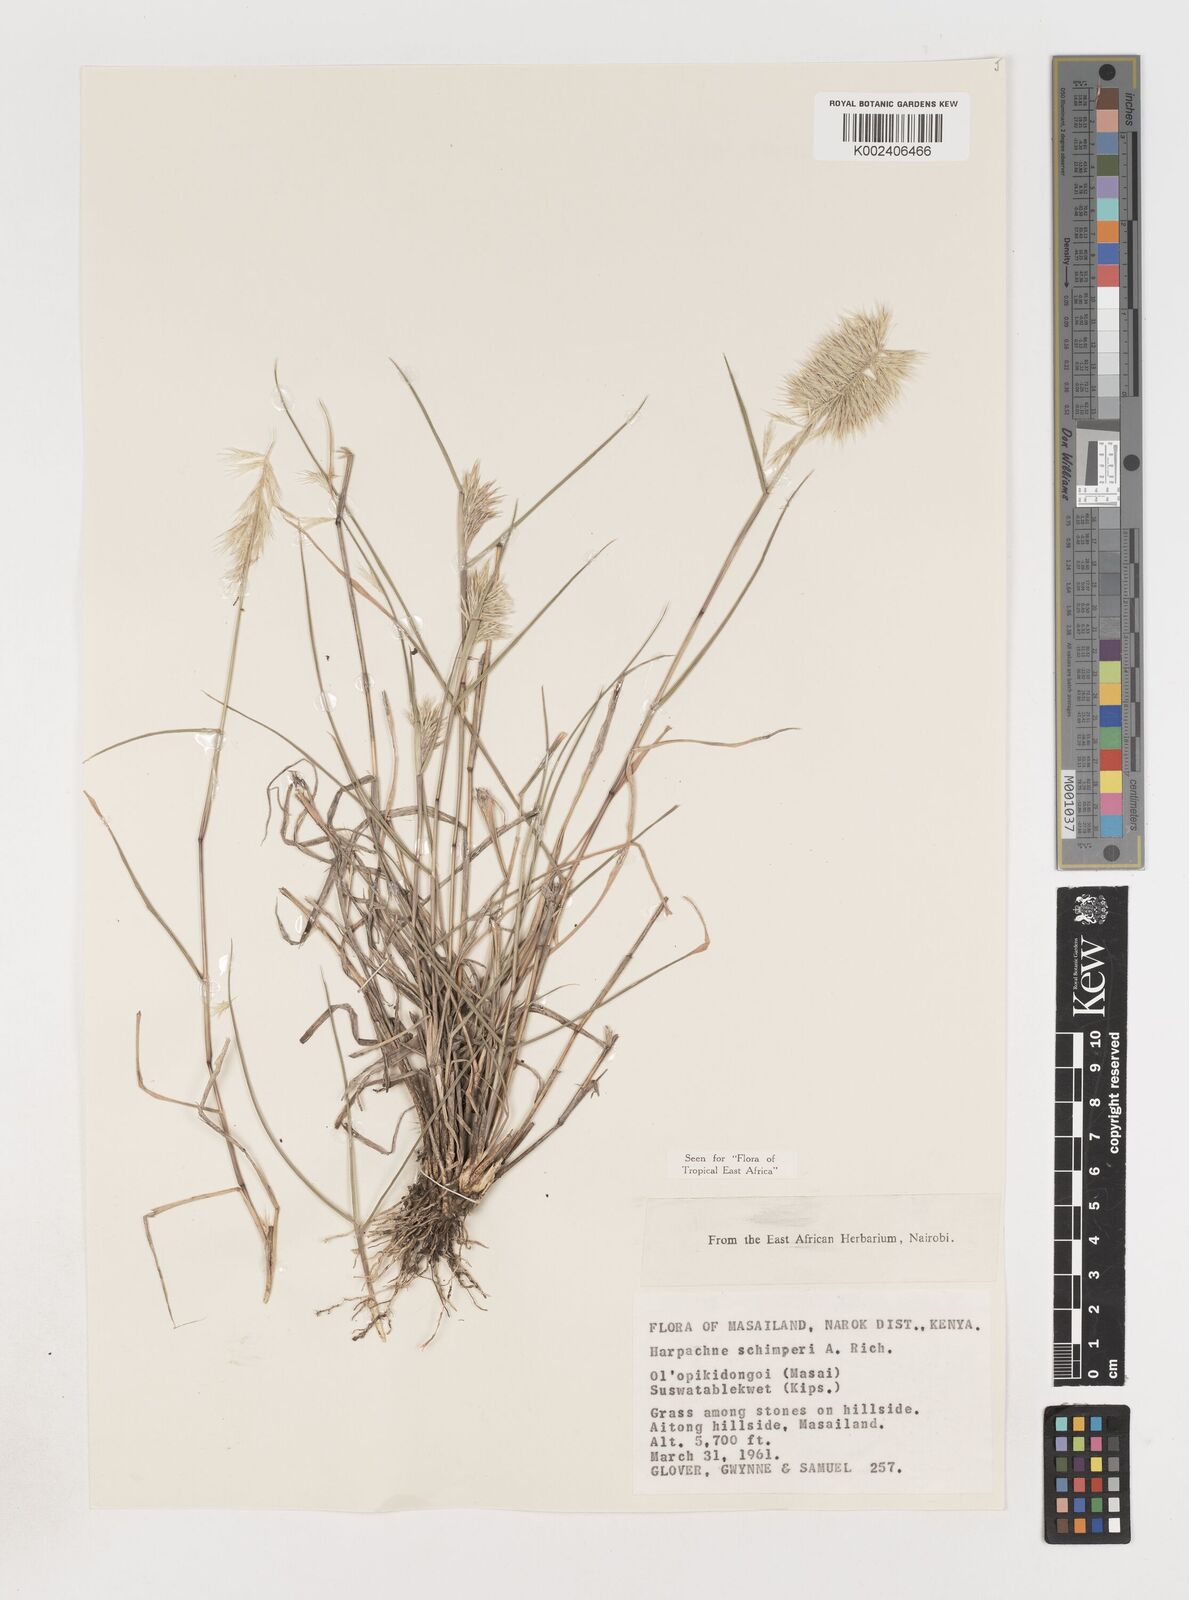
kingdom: Plantae
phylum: Tracheophyta
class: Liliopsida
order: Poales
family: Poaceae
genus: Harpachne
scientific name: Harpachne schimperi
